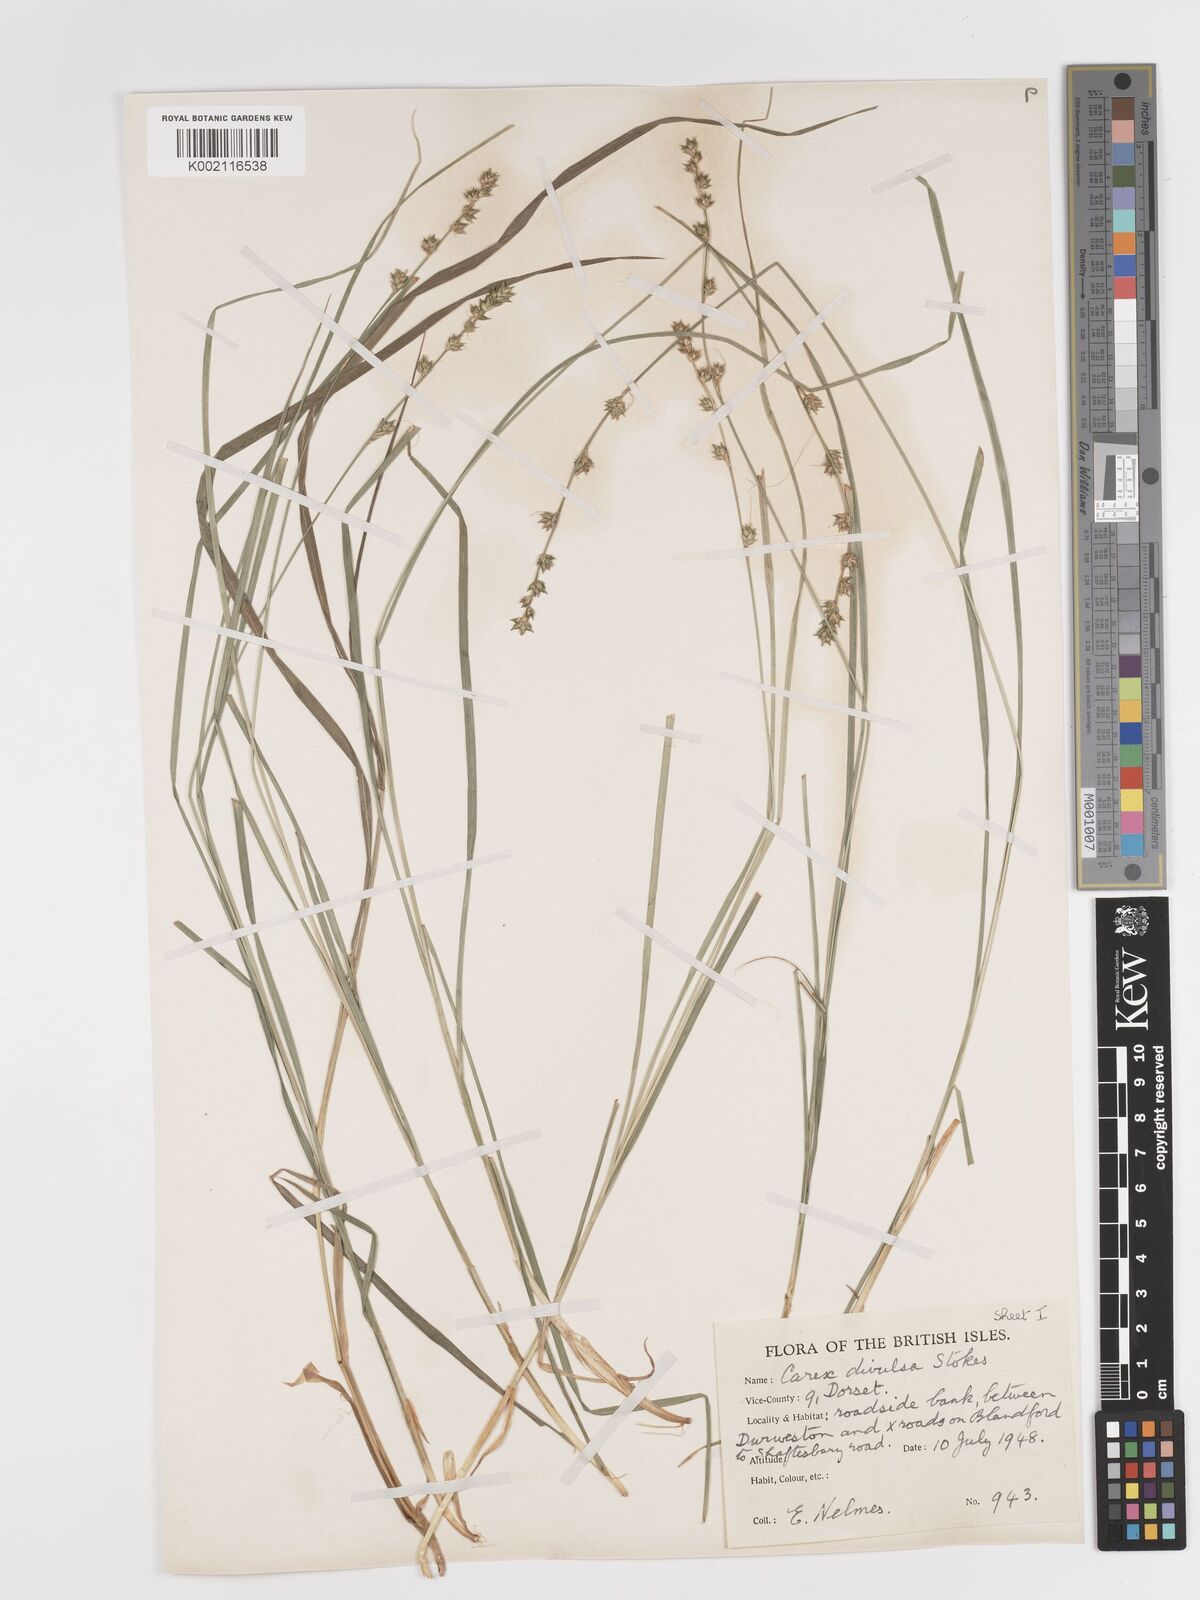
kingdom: Plantae
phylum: Tracheophyta
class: Liliopsida
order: Poales
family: Cyperaceae
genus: Carex
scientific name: Carex divulsa
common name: Grassland sedge
